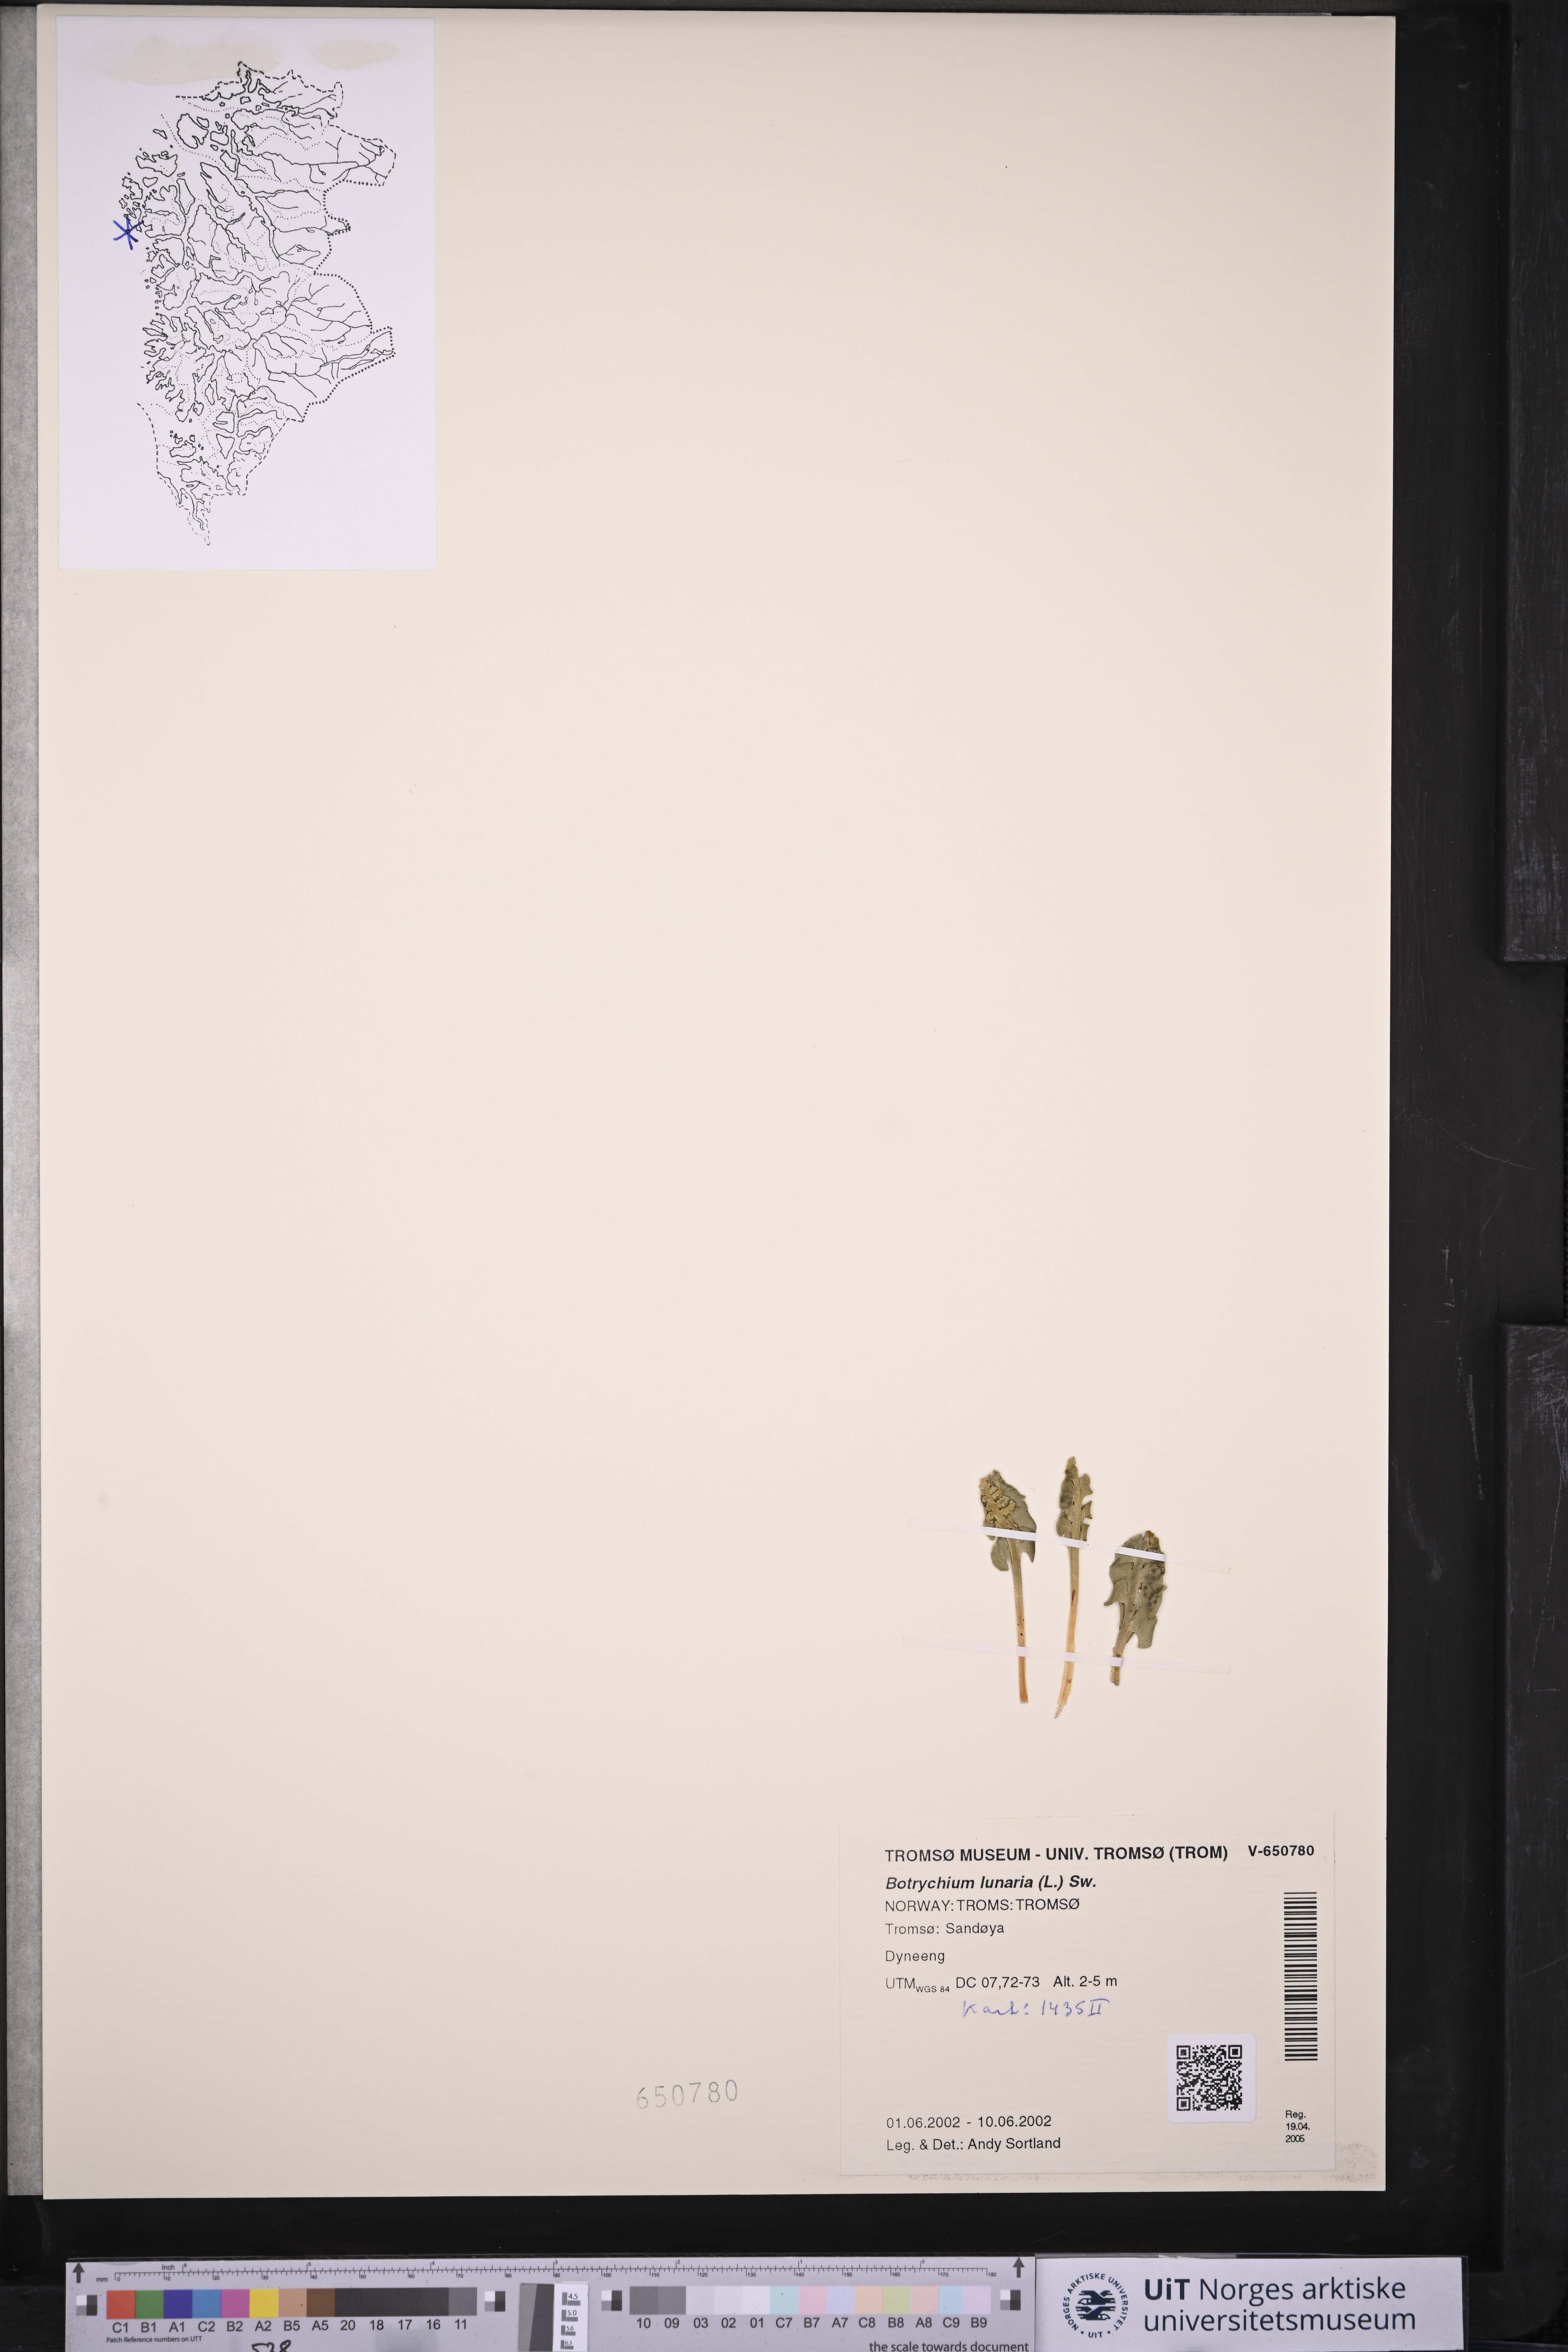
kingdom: Plantae
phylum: Tracheophyta
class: Polypodiopsida
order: Ophioglossales
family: Ophioglossaceae
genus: Botrychium
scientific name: Botrychium lunaria
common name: Moonwort
